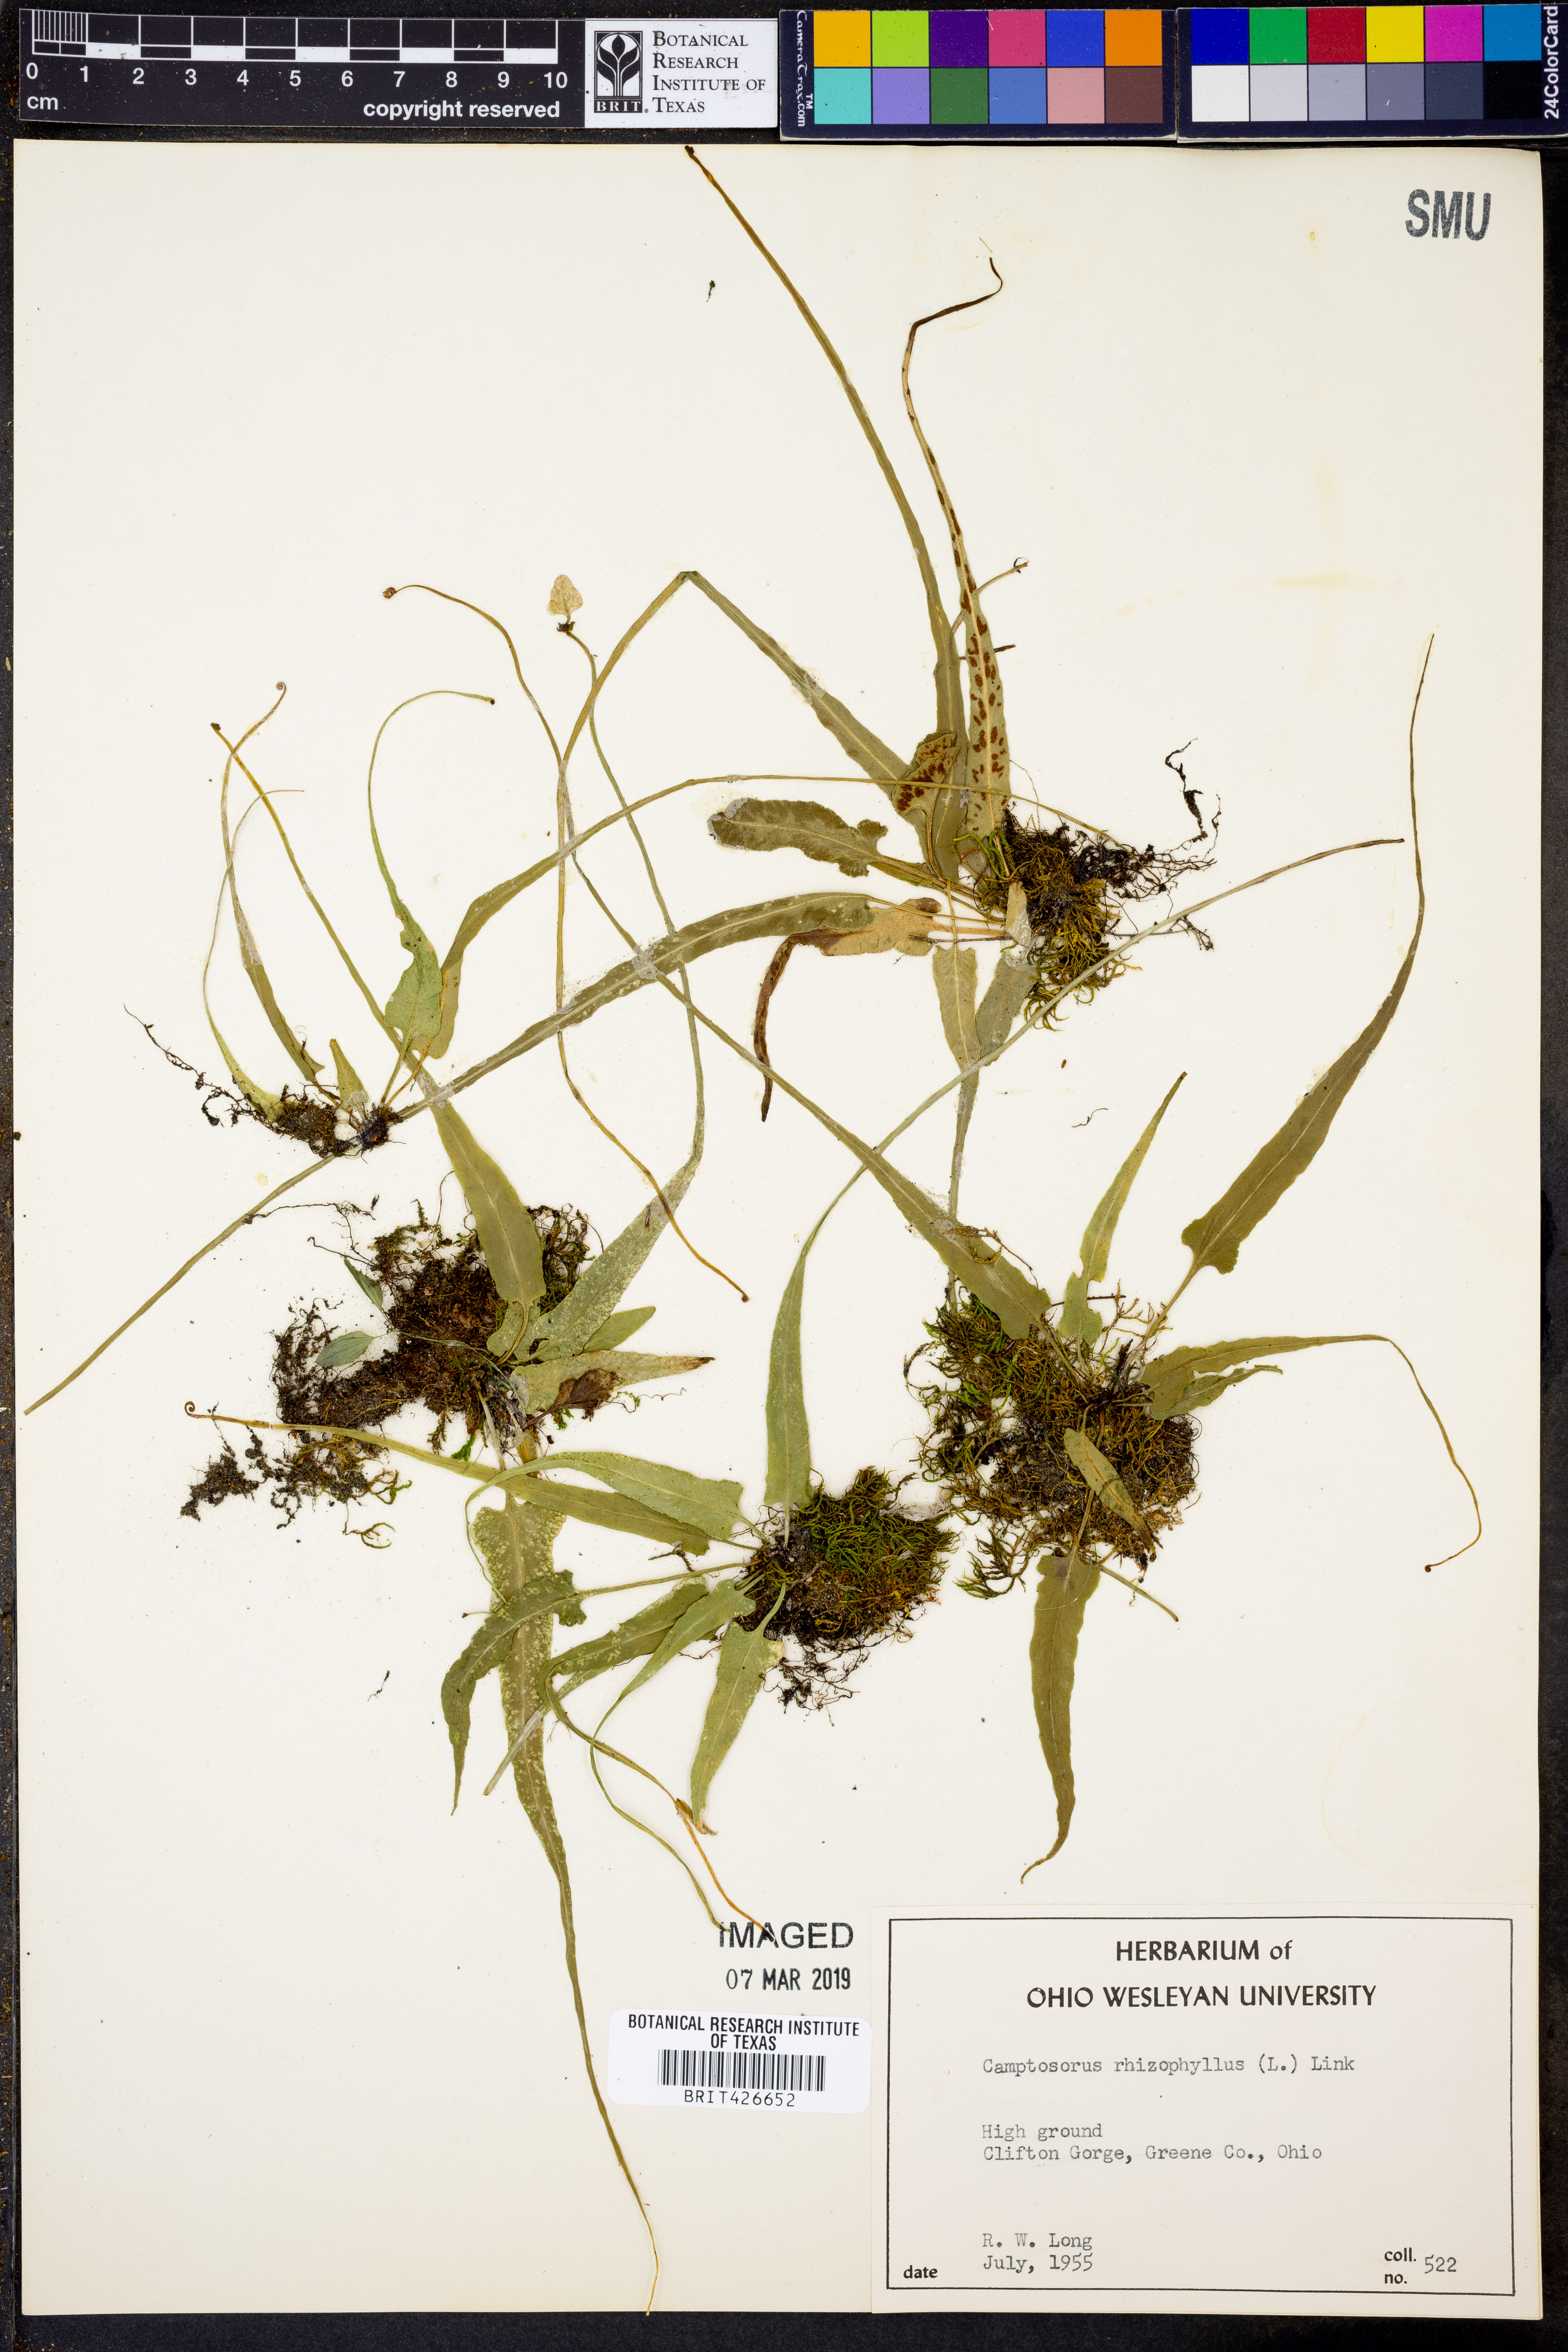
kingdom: Plantae
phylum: Tracheophyta
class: Polypodiopsida
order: Polypodiales
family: Aspleniaceae
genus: Asplenium
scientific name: Asplenium rhizophyllum
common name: Walking fern
